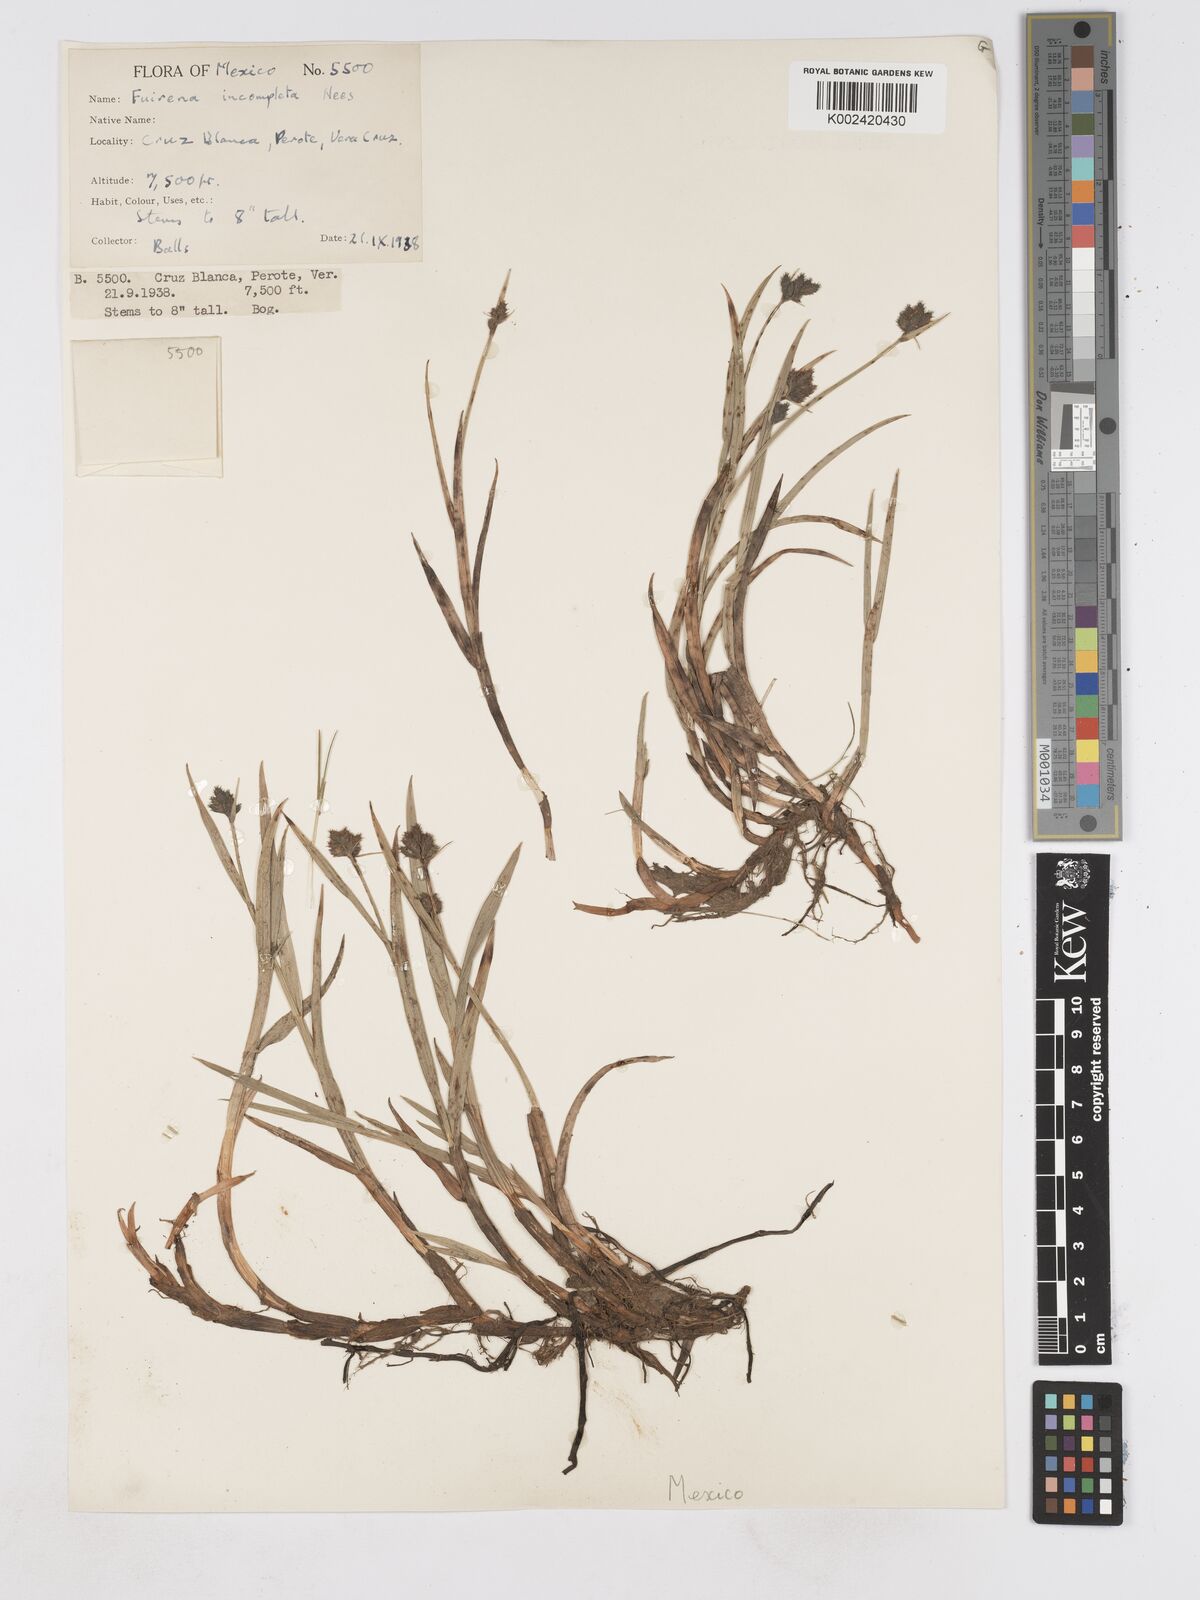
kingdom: Plantae
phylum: Tracheophyta
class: Liliopsida
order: Poales
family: Cyperaceae
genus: Fuirena
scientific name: Fuirena incompleta
